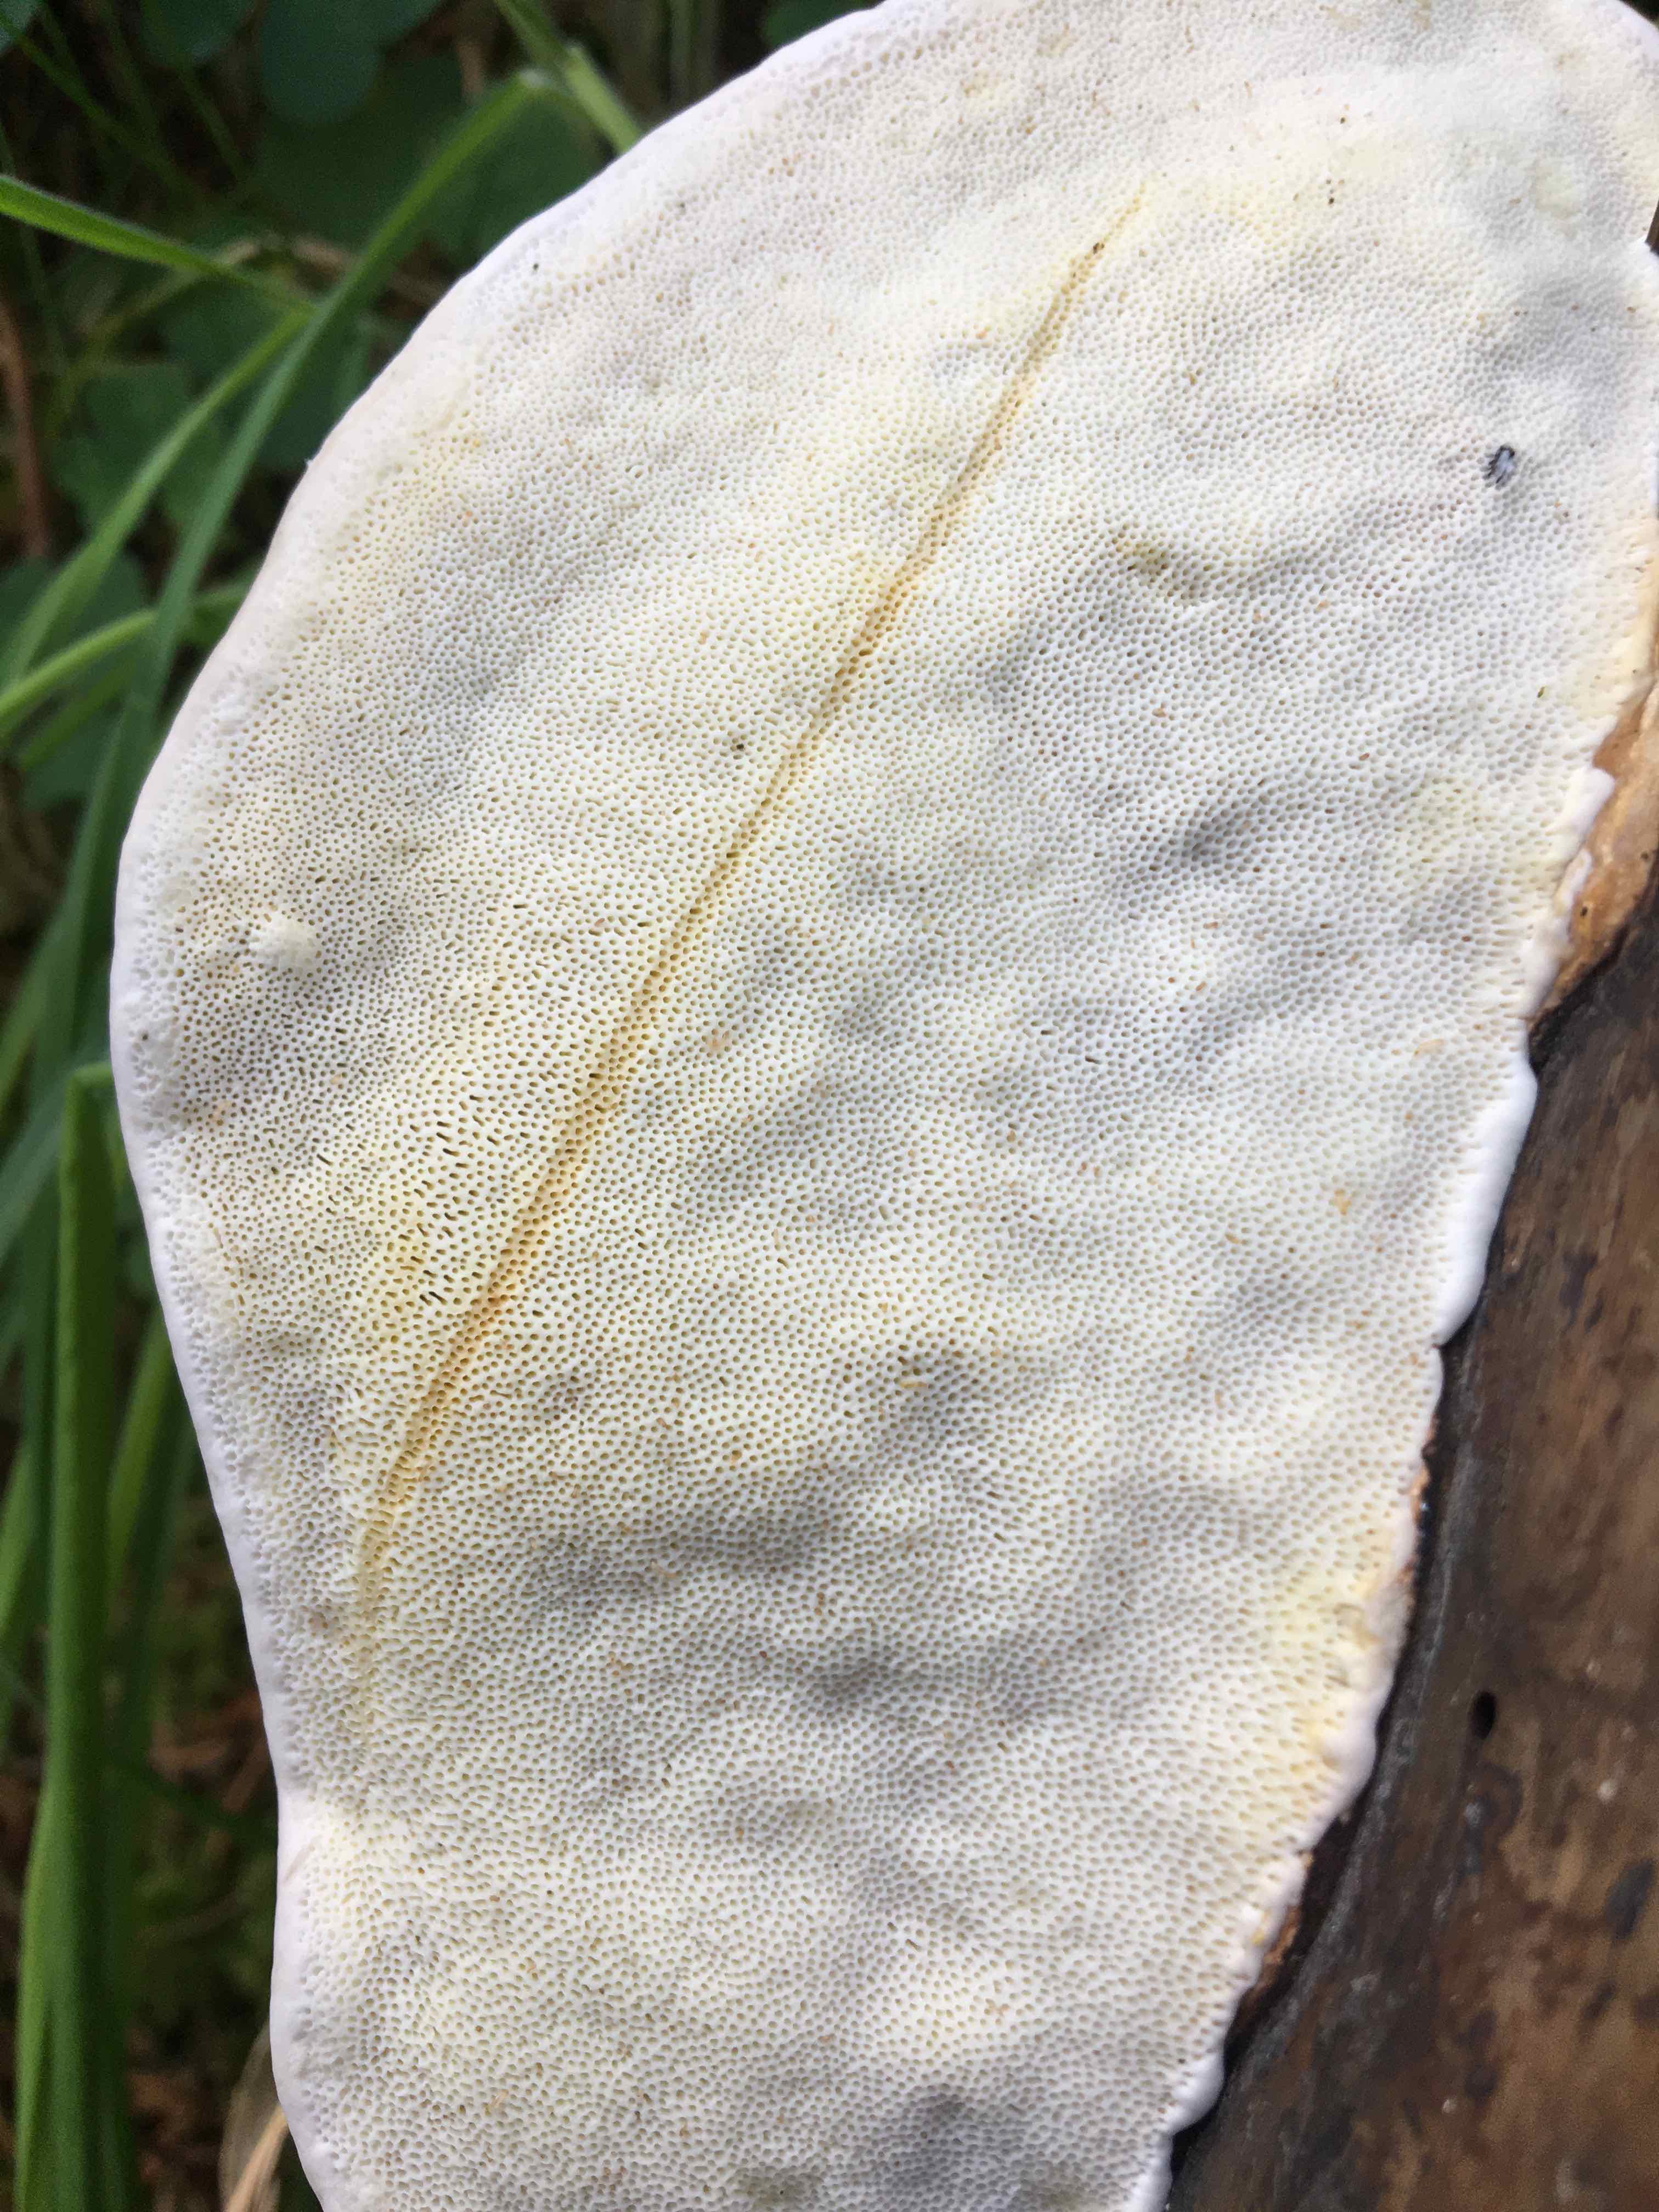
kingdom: Fungi
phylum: Basidiomycota
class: Agaricomycetes
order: Polyporales
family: Fomitopsidaceae
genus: Fomitopsis
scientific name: Fomitopsis pinicola
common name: randbæltet hovporesvamp
